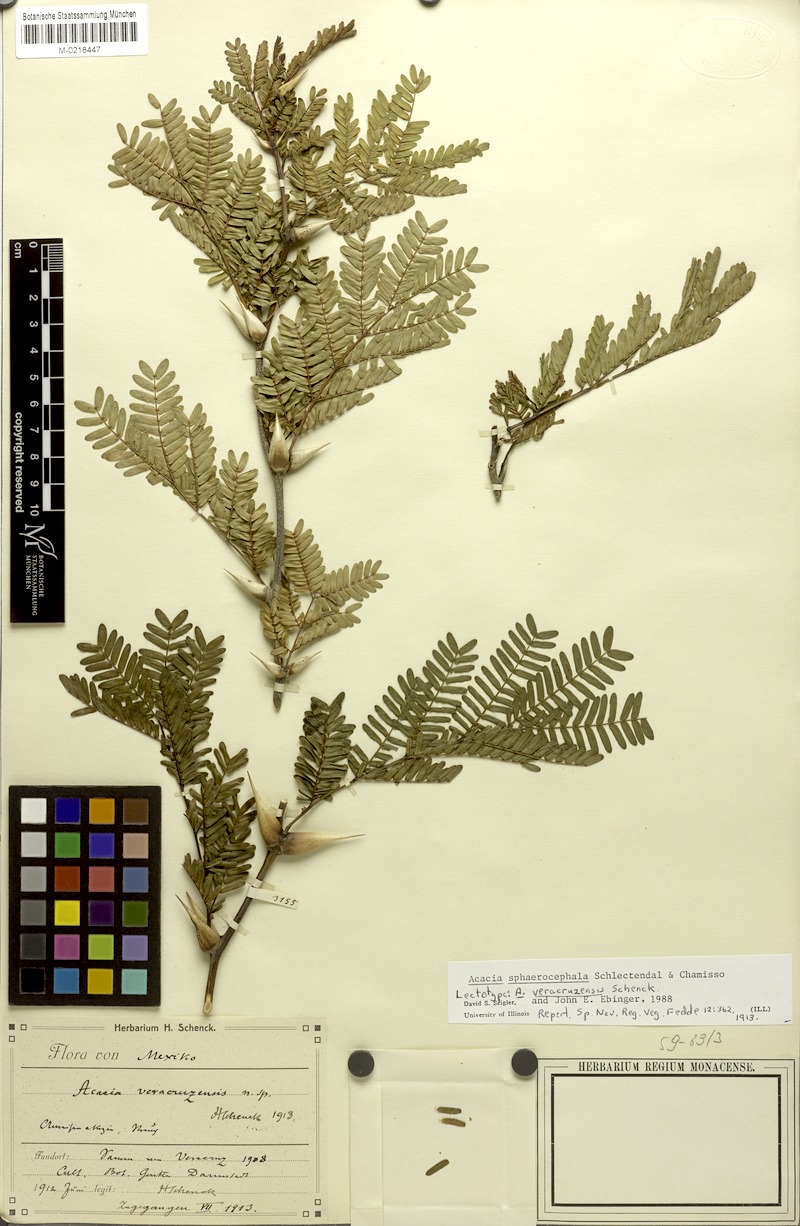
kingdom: Plantae
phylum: Tracheophyta
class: Magnoliopsida
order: Fabales
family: Fabaceae
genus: Vachellia
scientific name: Vachellia sphaerocephala
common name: Bee wattle
